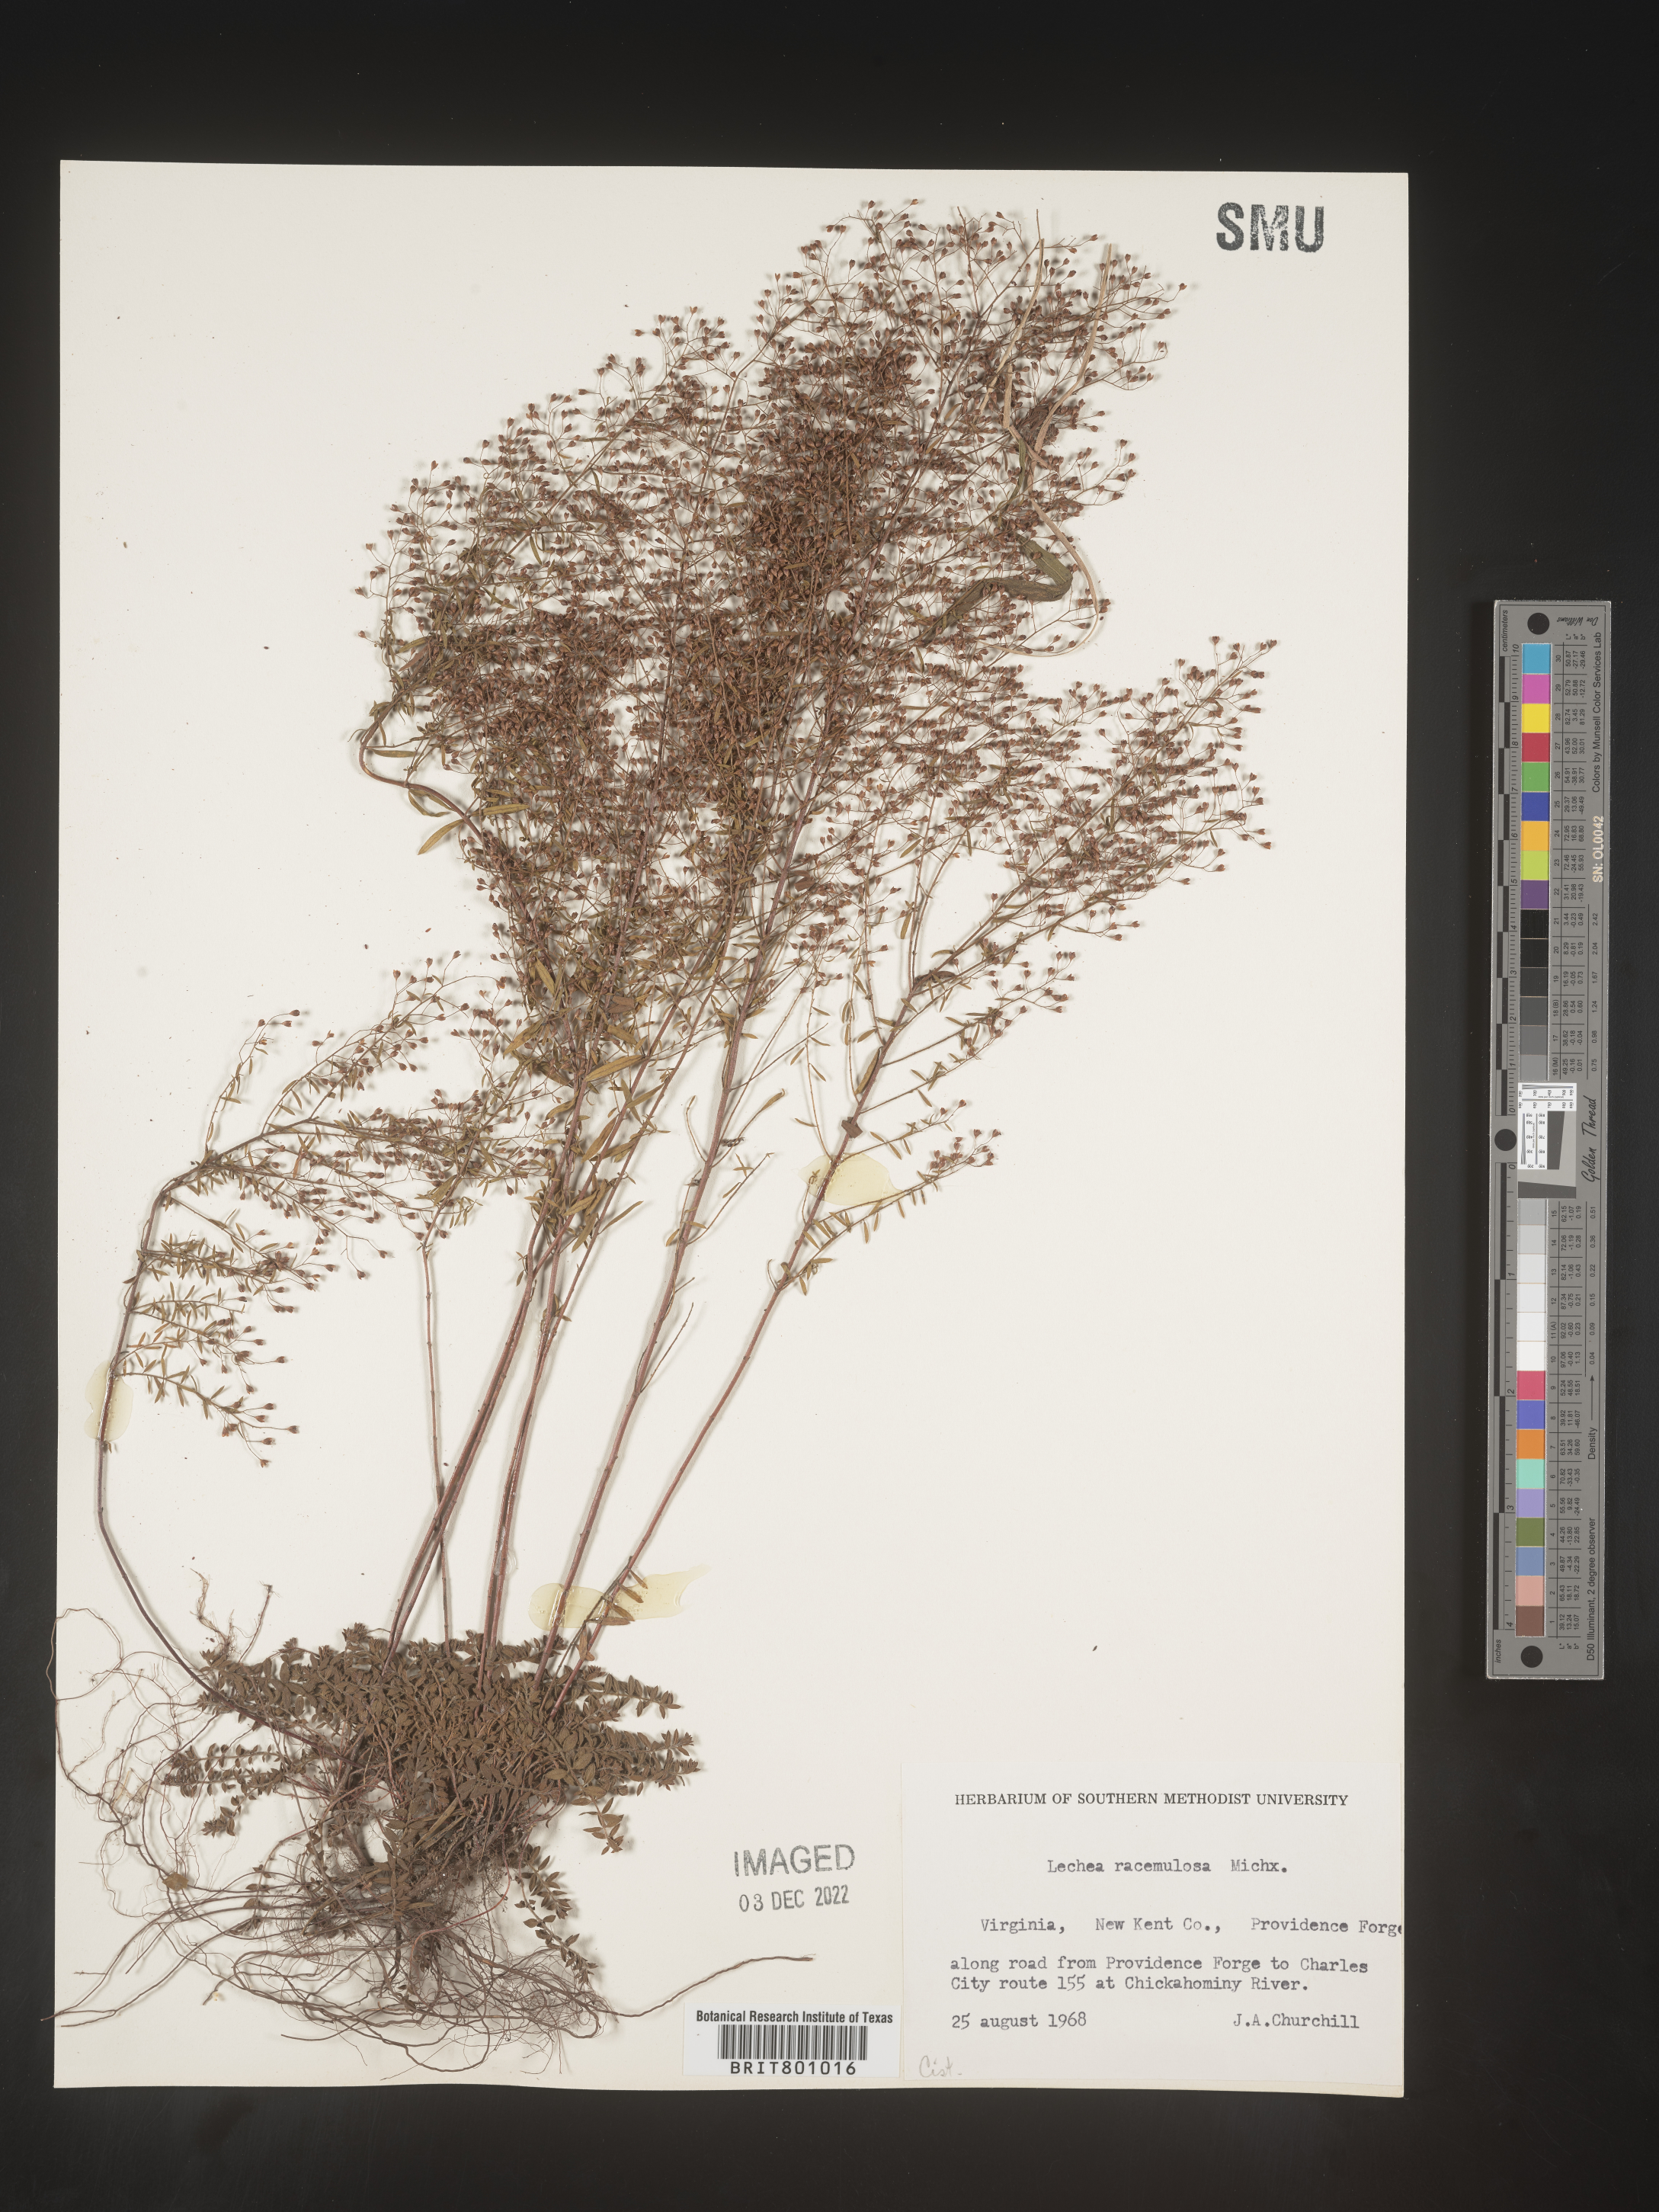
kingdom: Plantae
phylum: Tracheophyta
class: Magnoliopsida
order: Malvales
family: Cistaceae
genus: Lechea
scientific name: Lechea racemulosa
